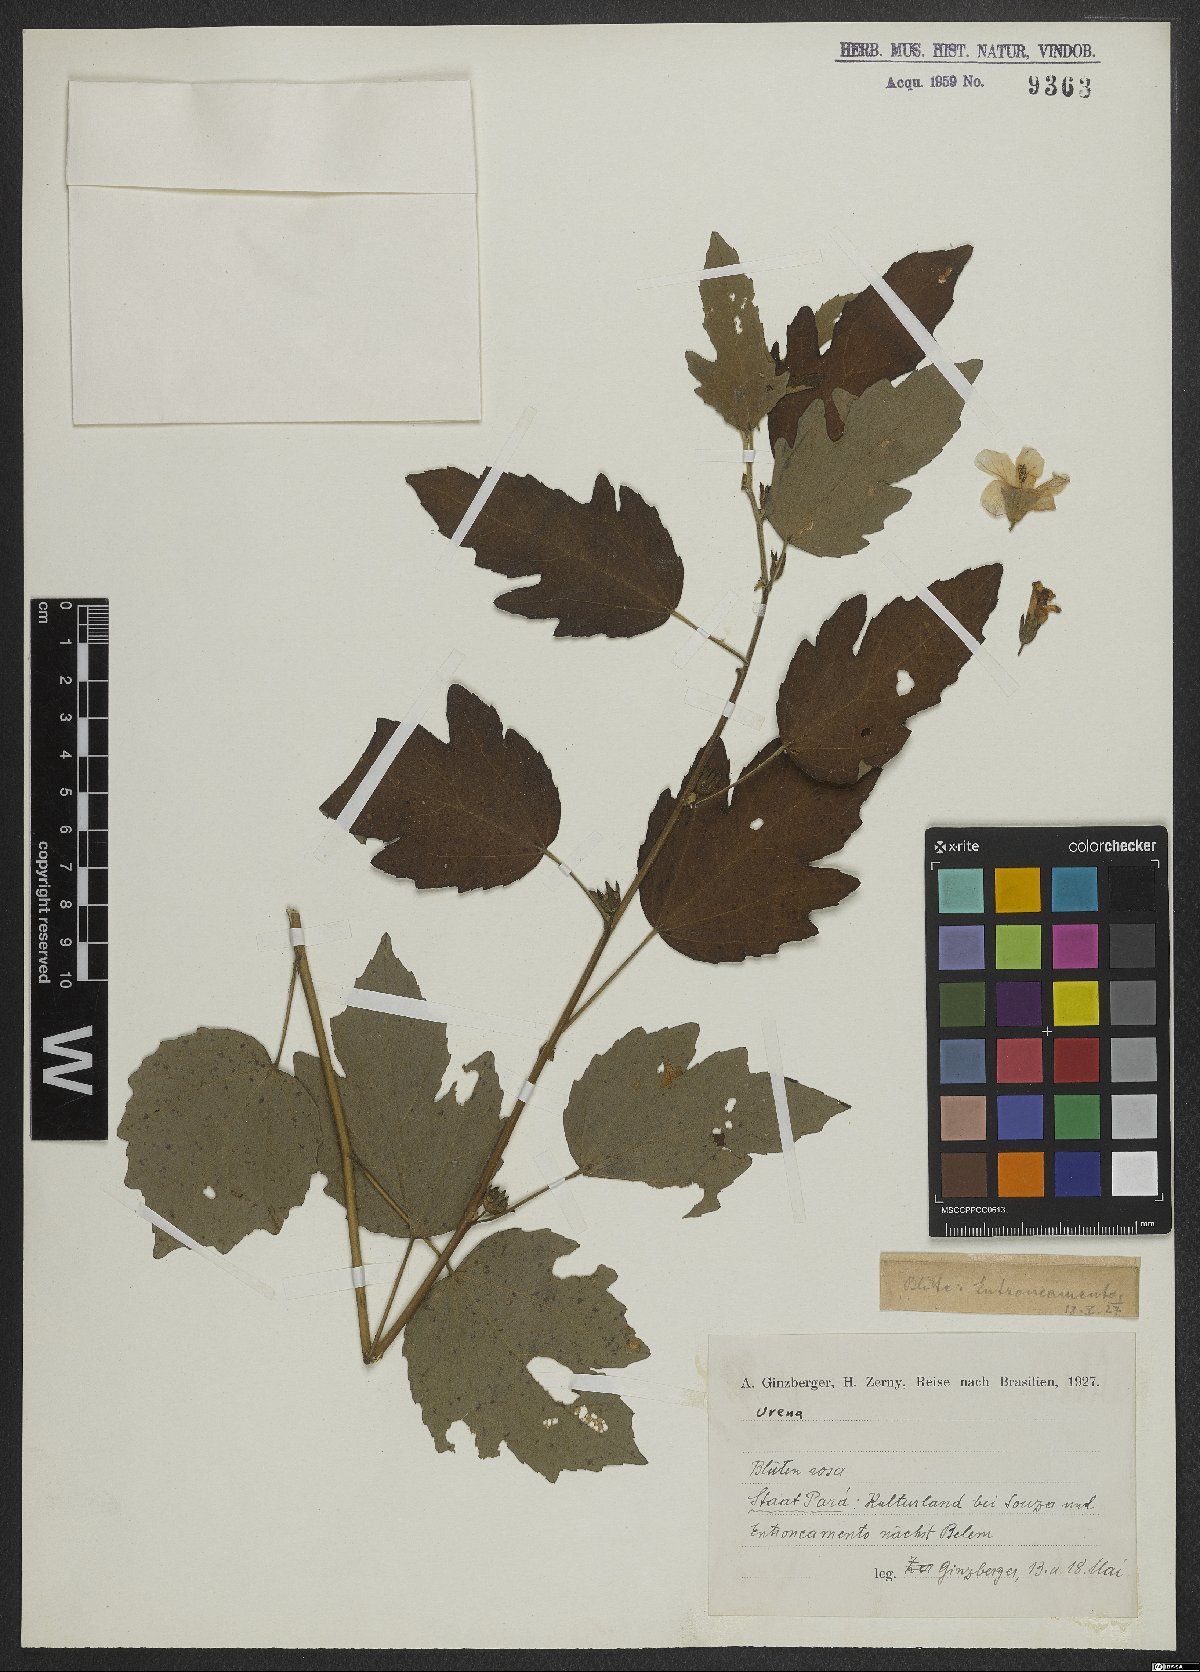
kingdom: Plantae
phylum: Tracheophyta
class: Magnoliopsida
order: Malvales
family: Malvaceae
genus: Urena
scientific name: Urena
